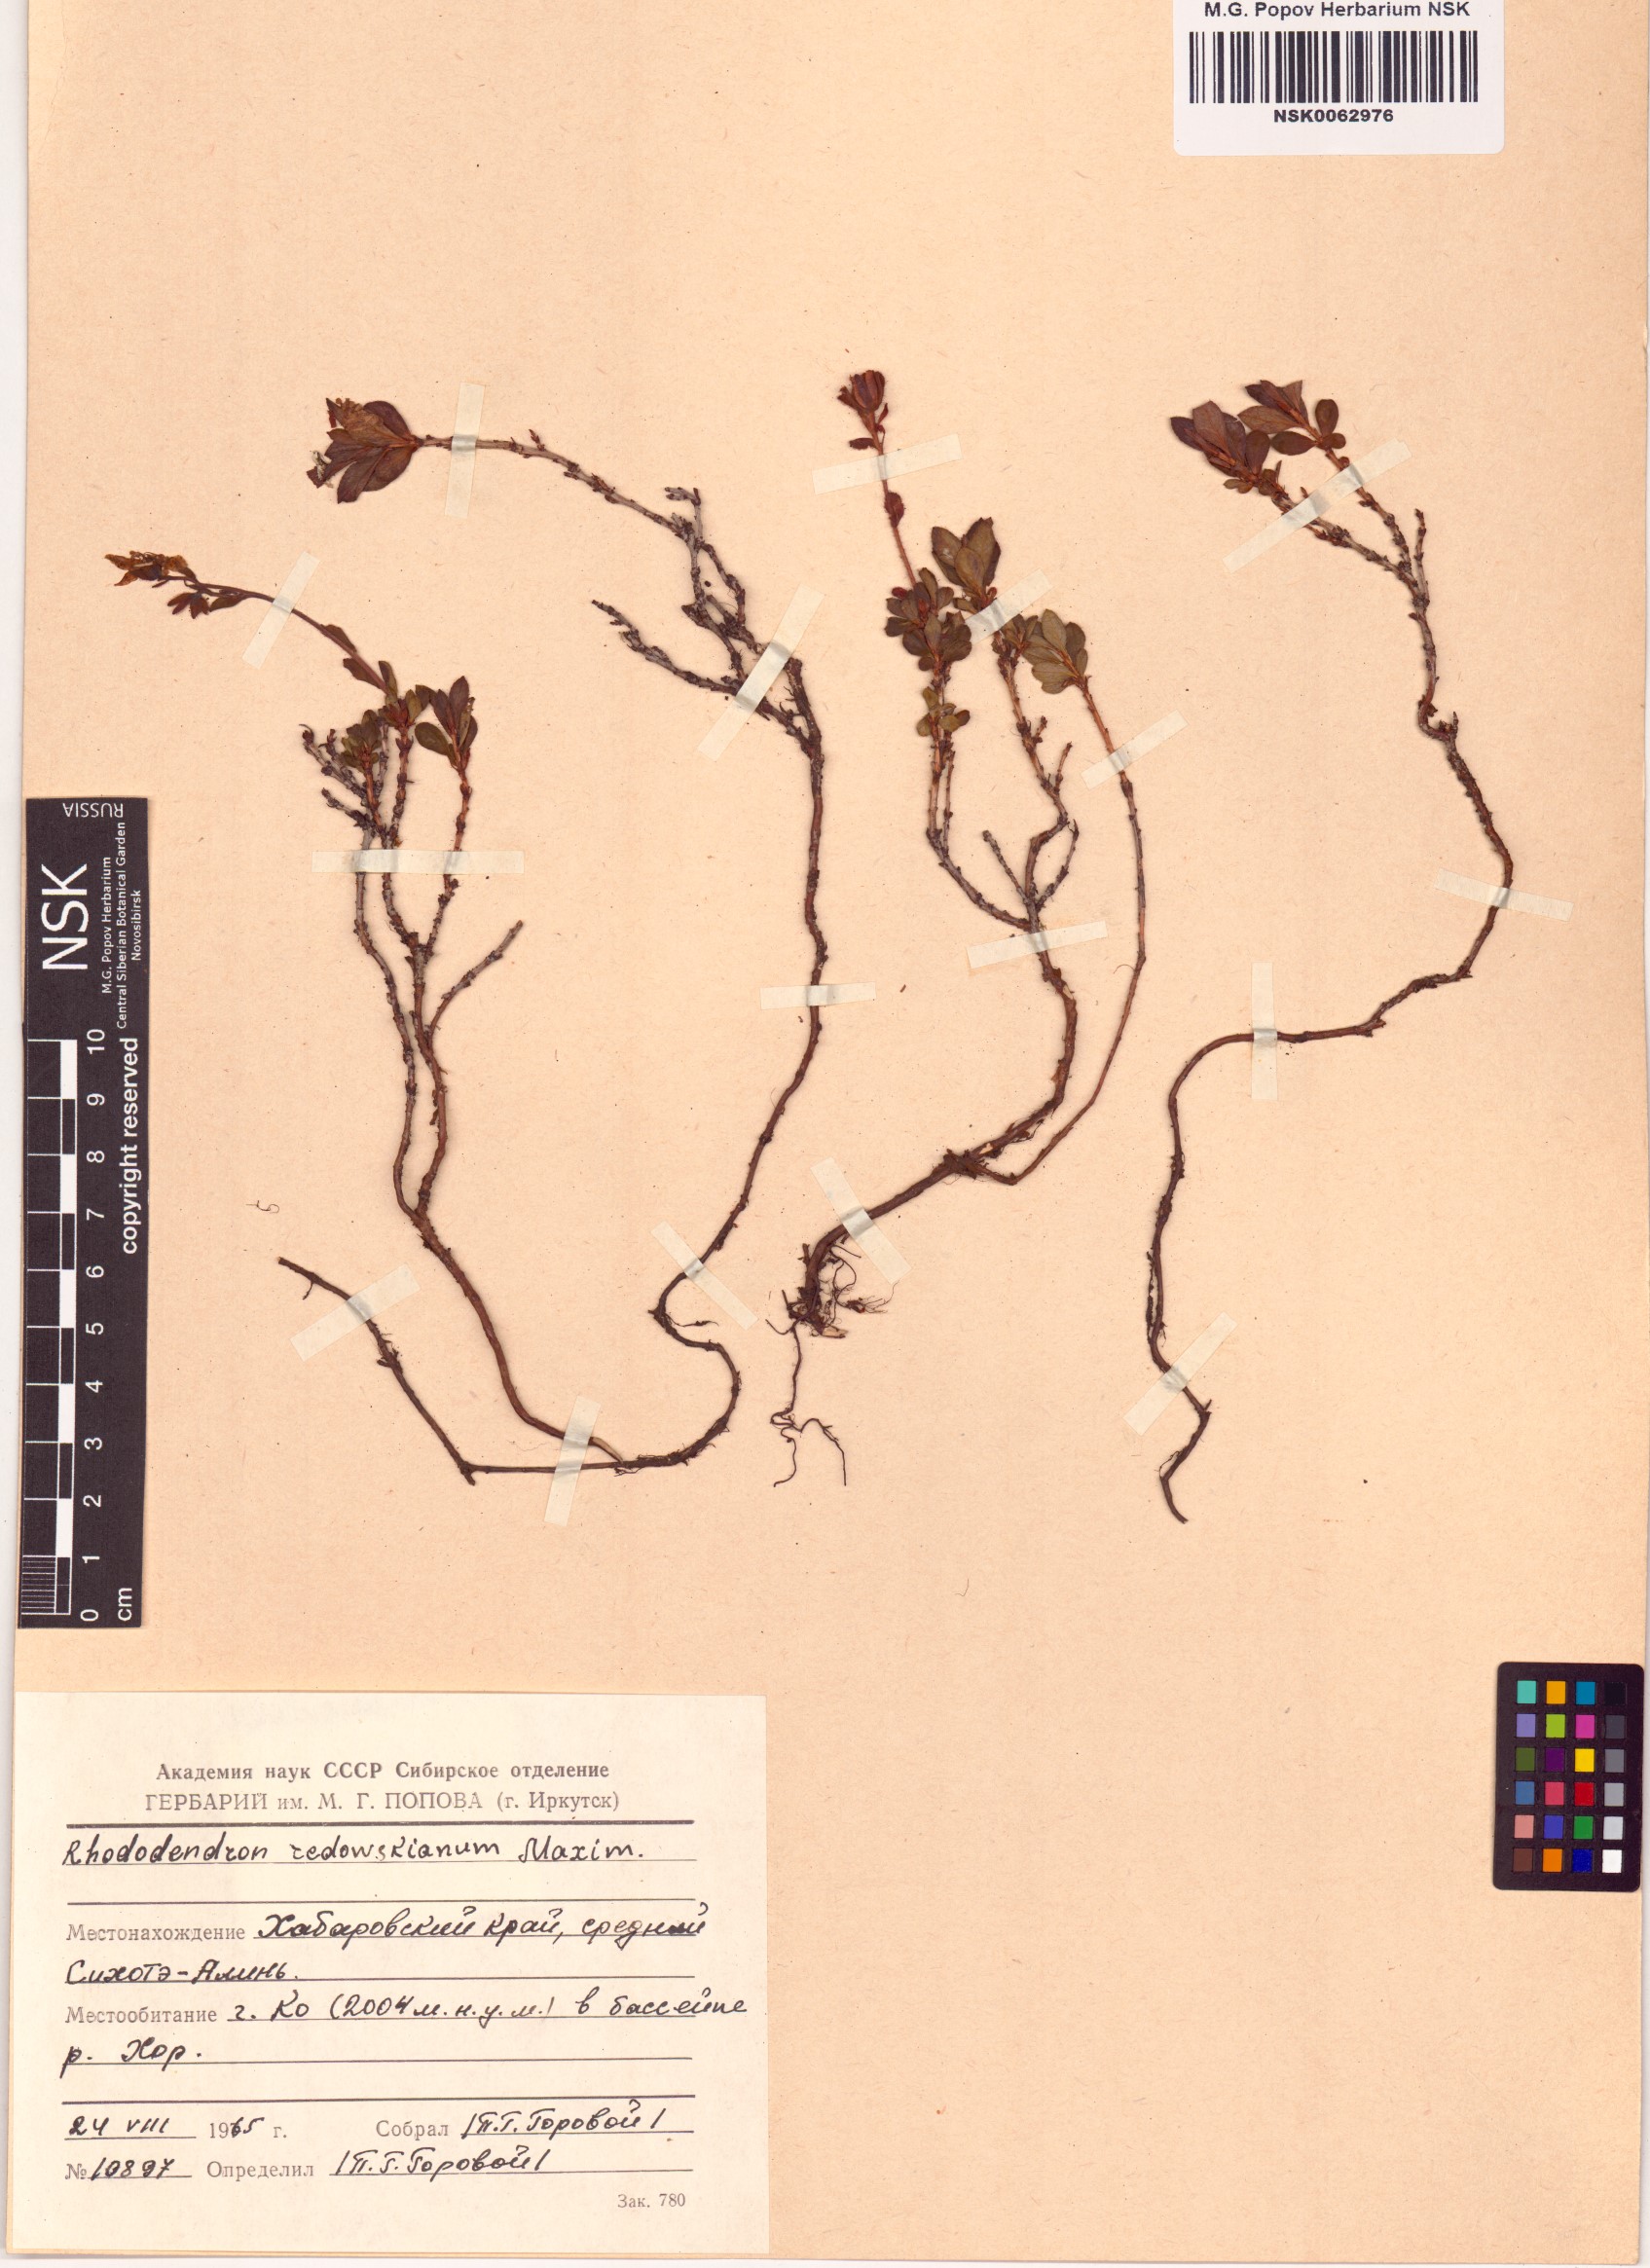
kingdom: Plantae
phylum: Tracheophyta
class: Magnoliopsida
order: Ericales
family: Ericaceae
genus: Rhododendron
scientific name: Rhododendron redowskianum
